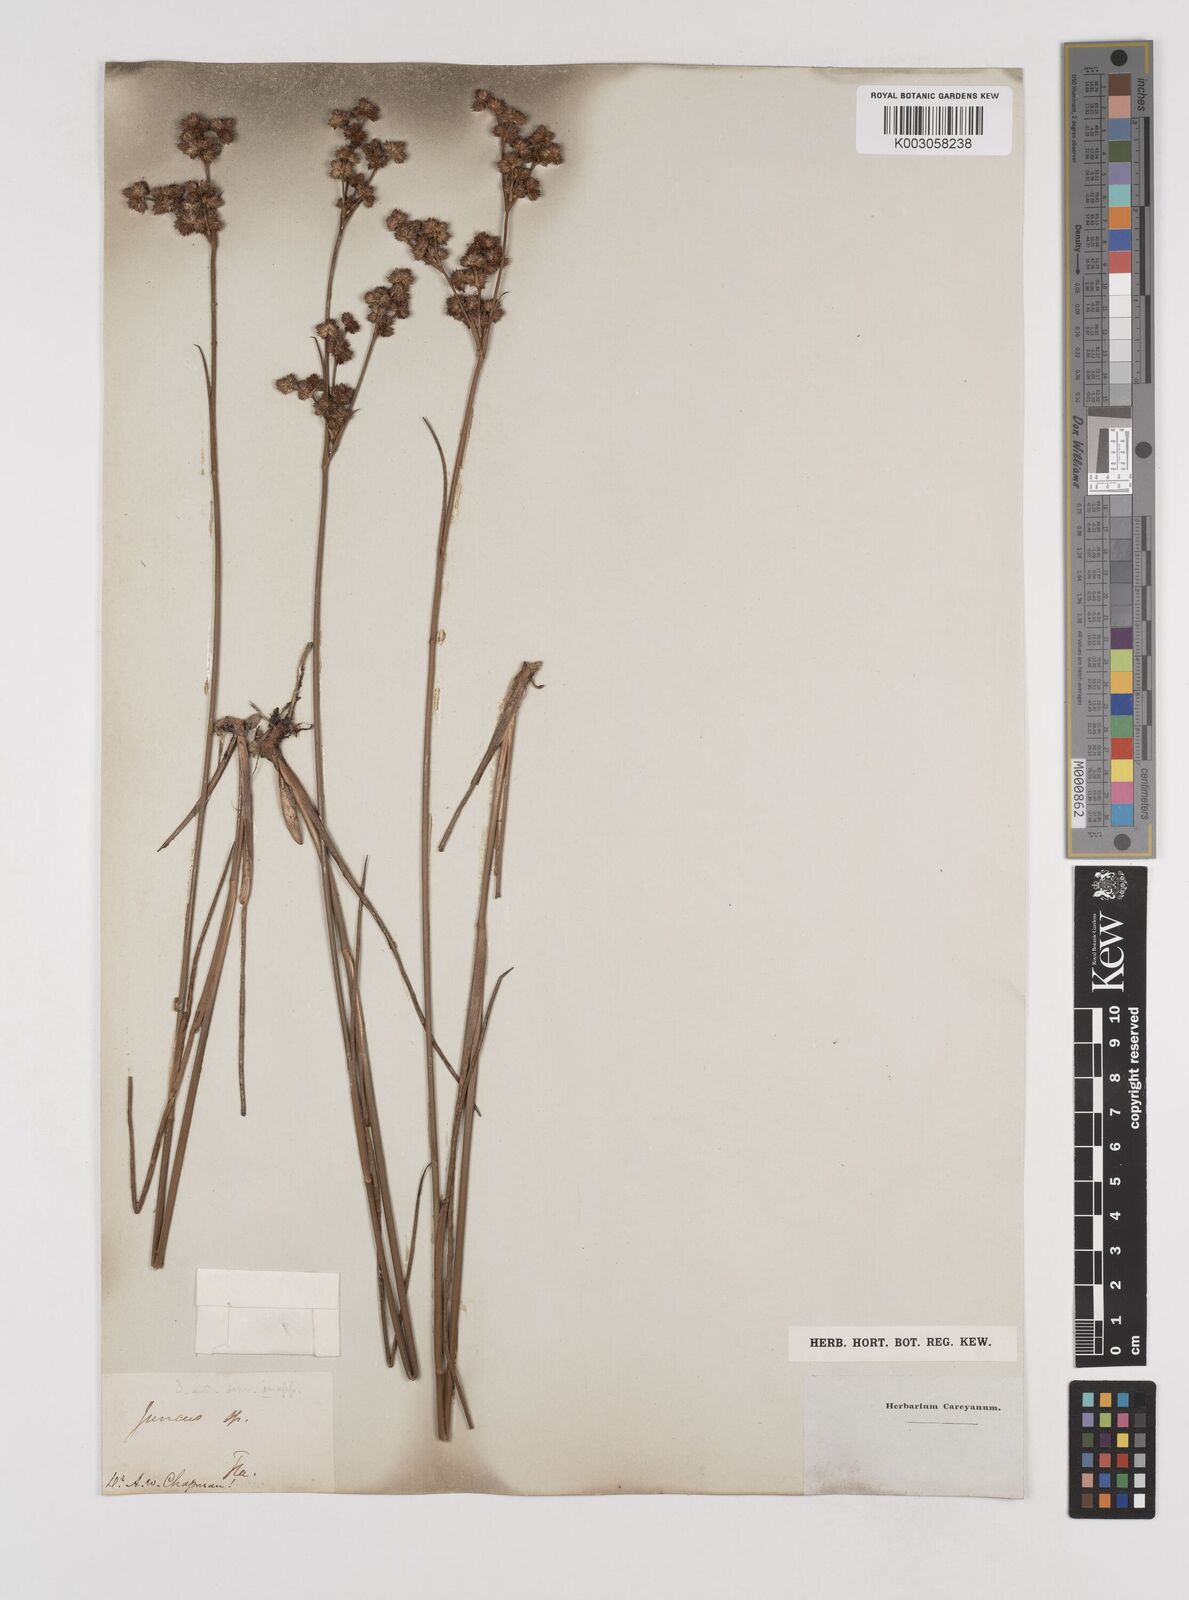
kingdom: Plantae
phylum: Tracheophyta
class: Liliopsida
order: Poales
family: Juncaceae
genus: Juncus
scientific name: Juncus
